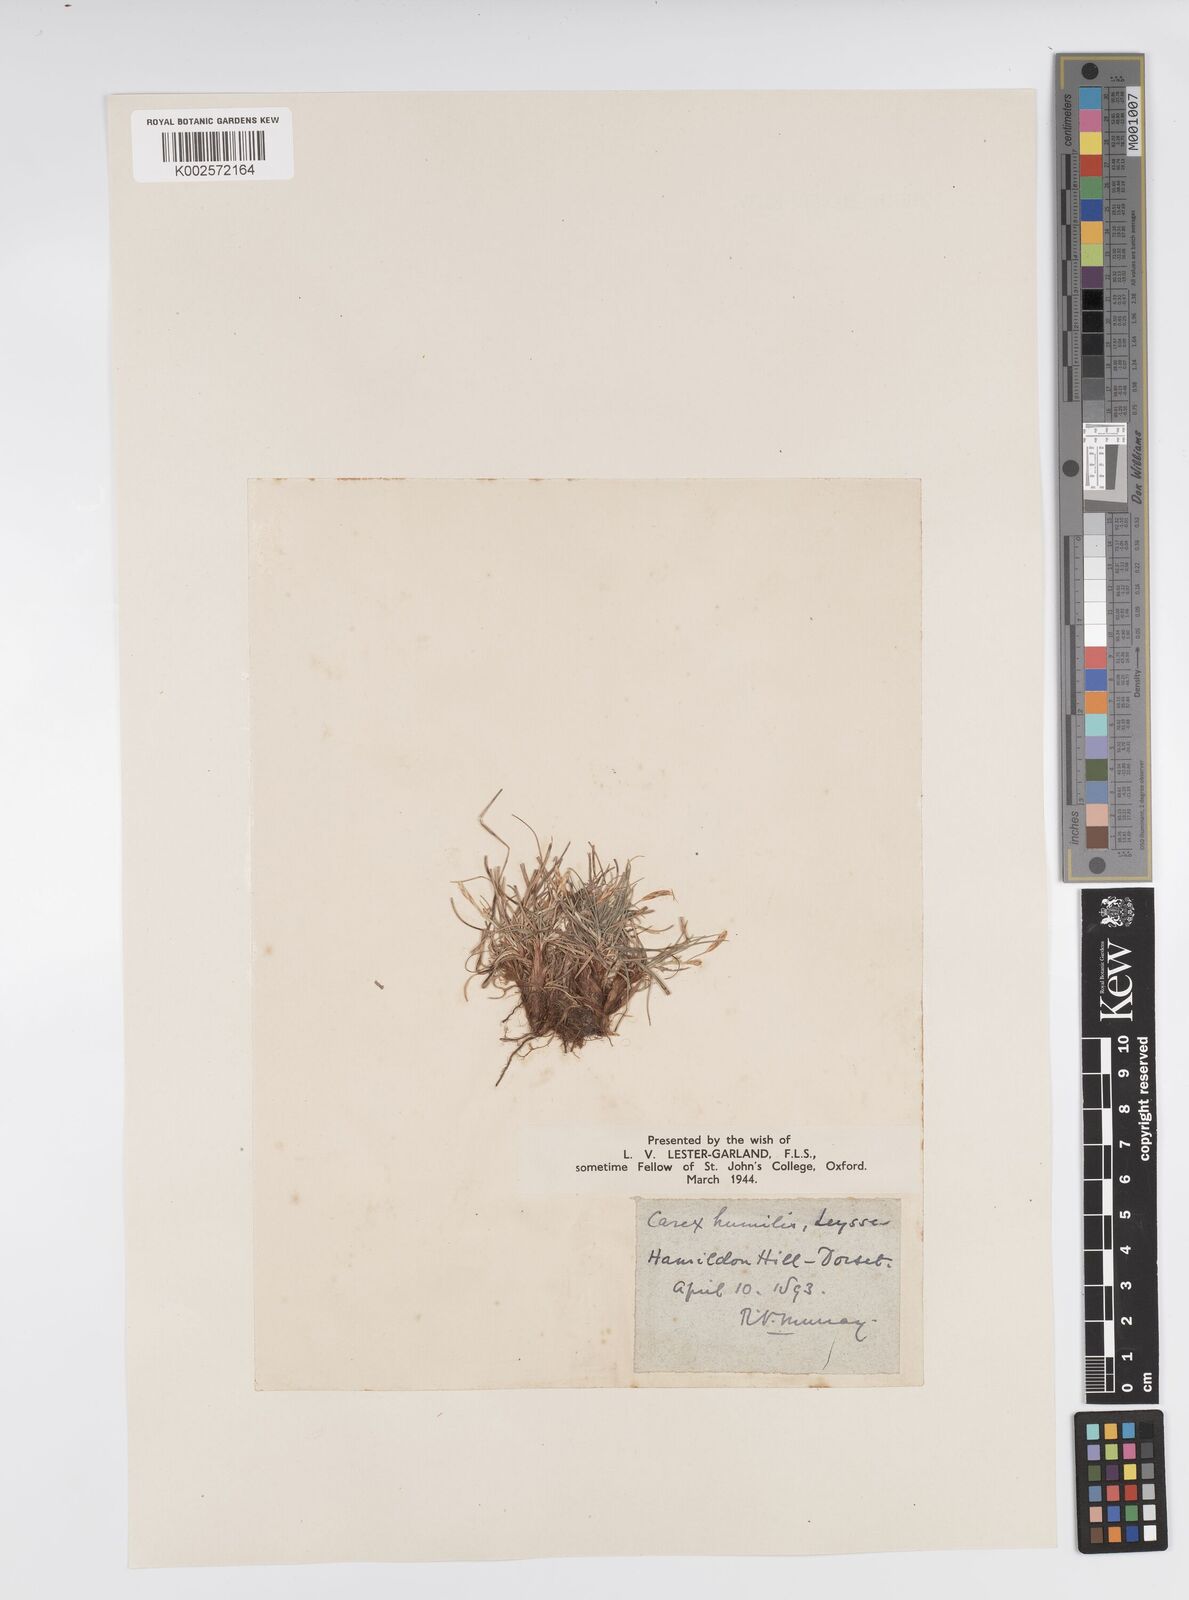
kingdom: Plantae
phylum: Tracheophyta
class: Liliopsida
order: Poales
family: Cyperaceae
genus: Carex
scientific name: Carex cespitosa
